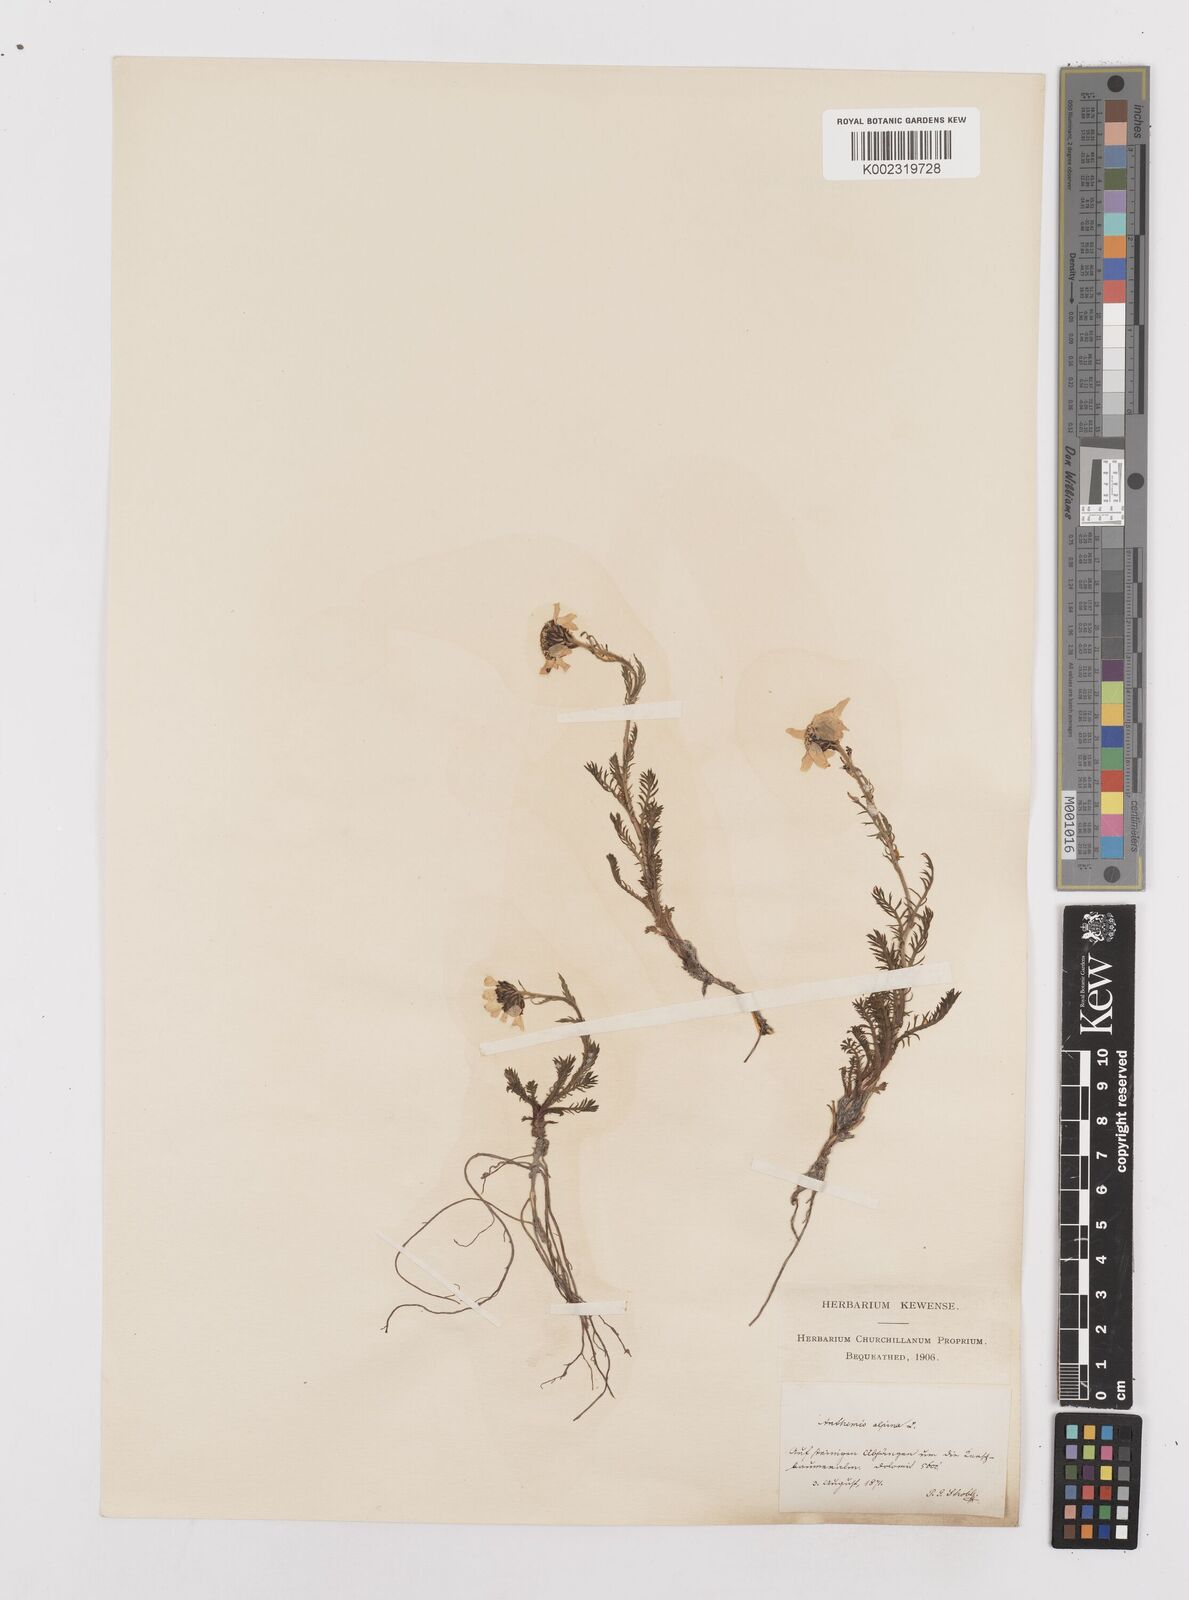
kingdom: Plantae
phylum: Tracheophyta
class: Magnoliopsida
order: Asterales
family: Asteraceae
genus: Achillea
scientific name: Achillea oxyloba
